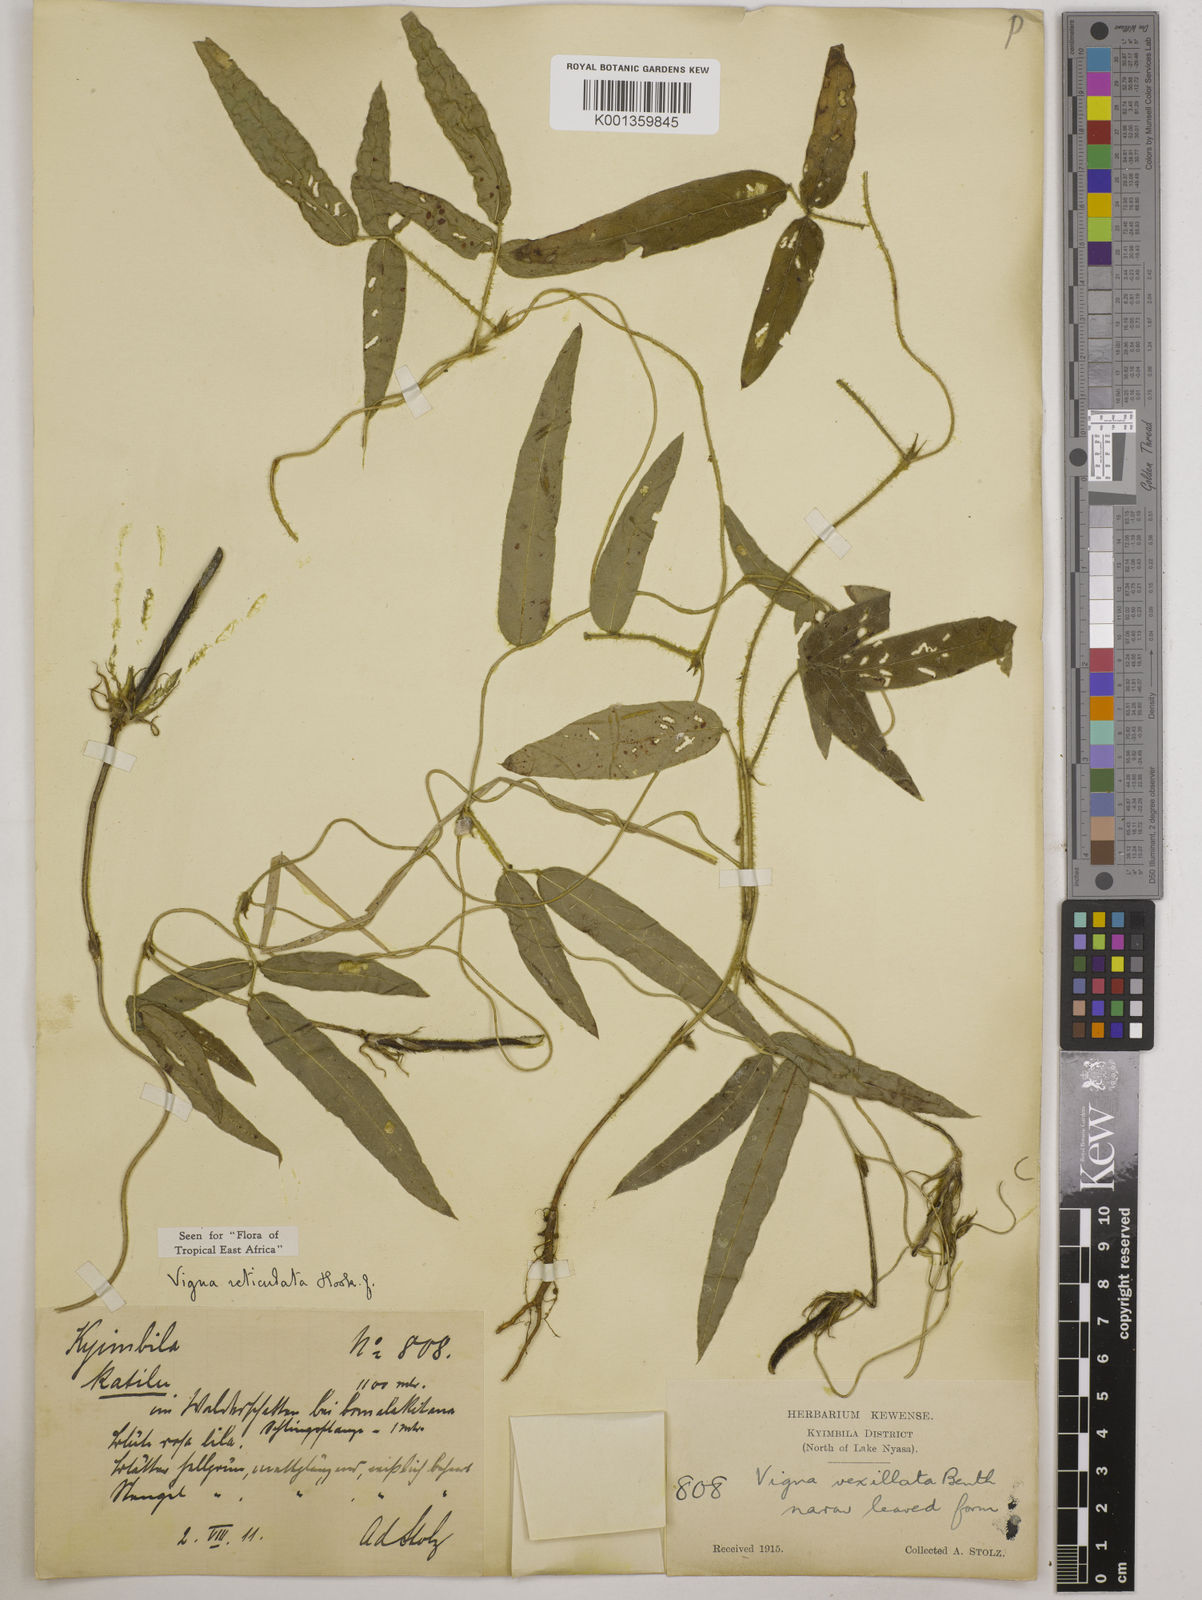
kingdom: Plantae
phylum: Tracheophyta
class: Magnoliopsida
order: Fabales
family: Fabaceae
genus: Vigna
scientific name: Vigna reticulata
